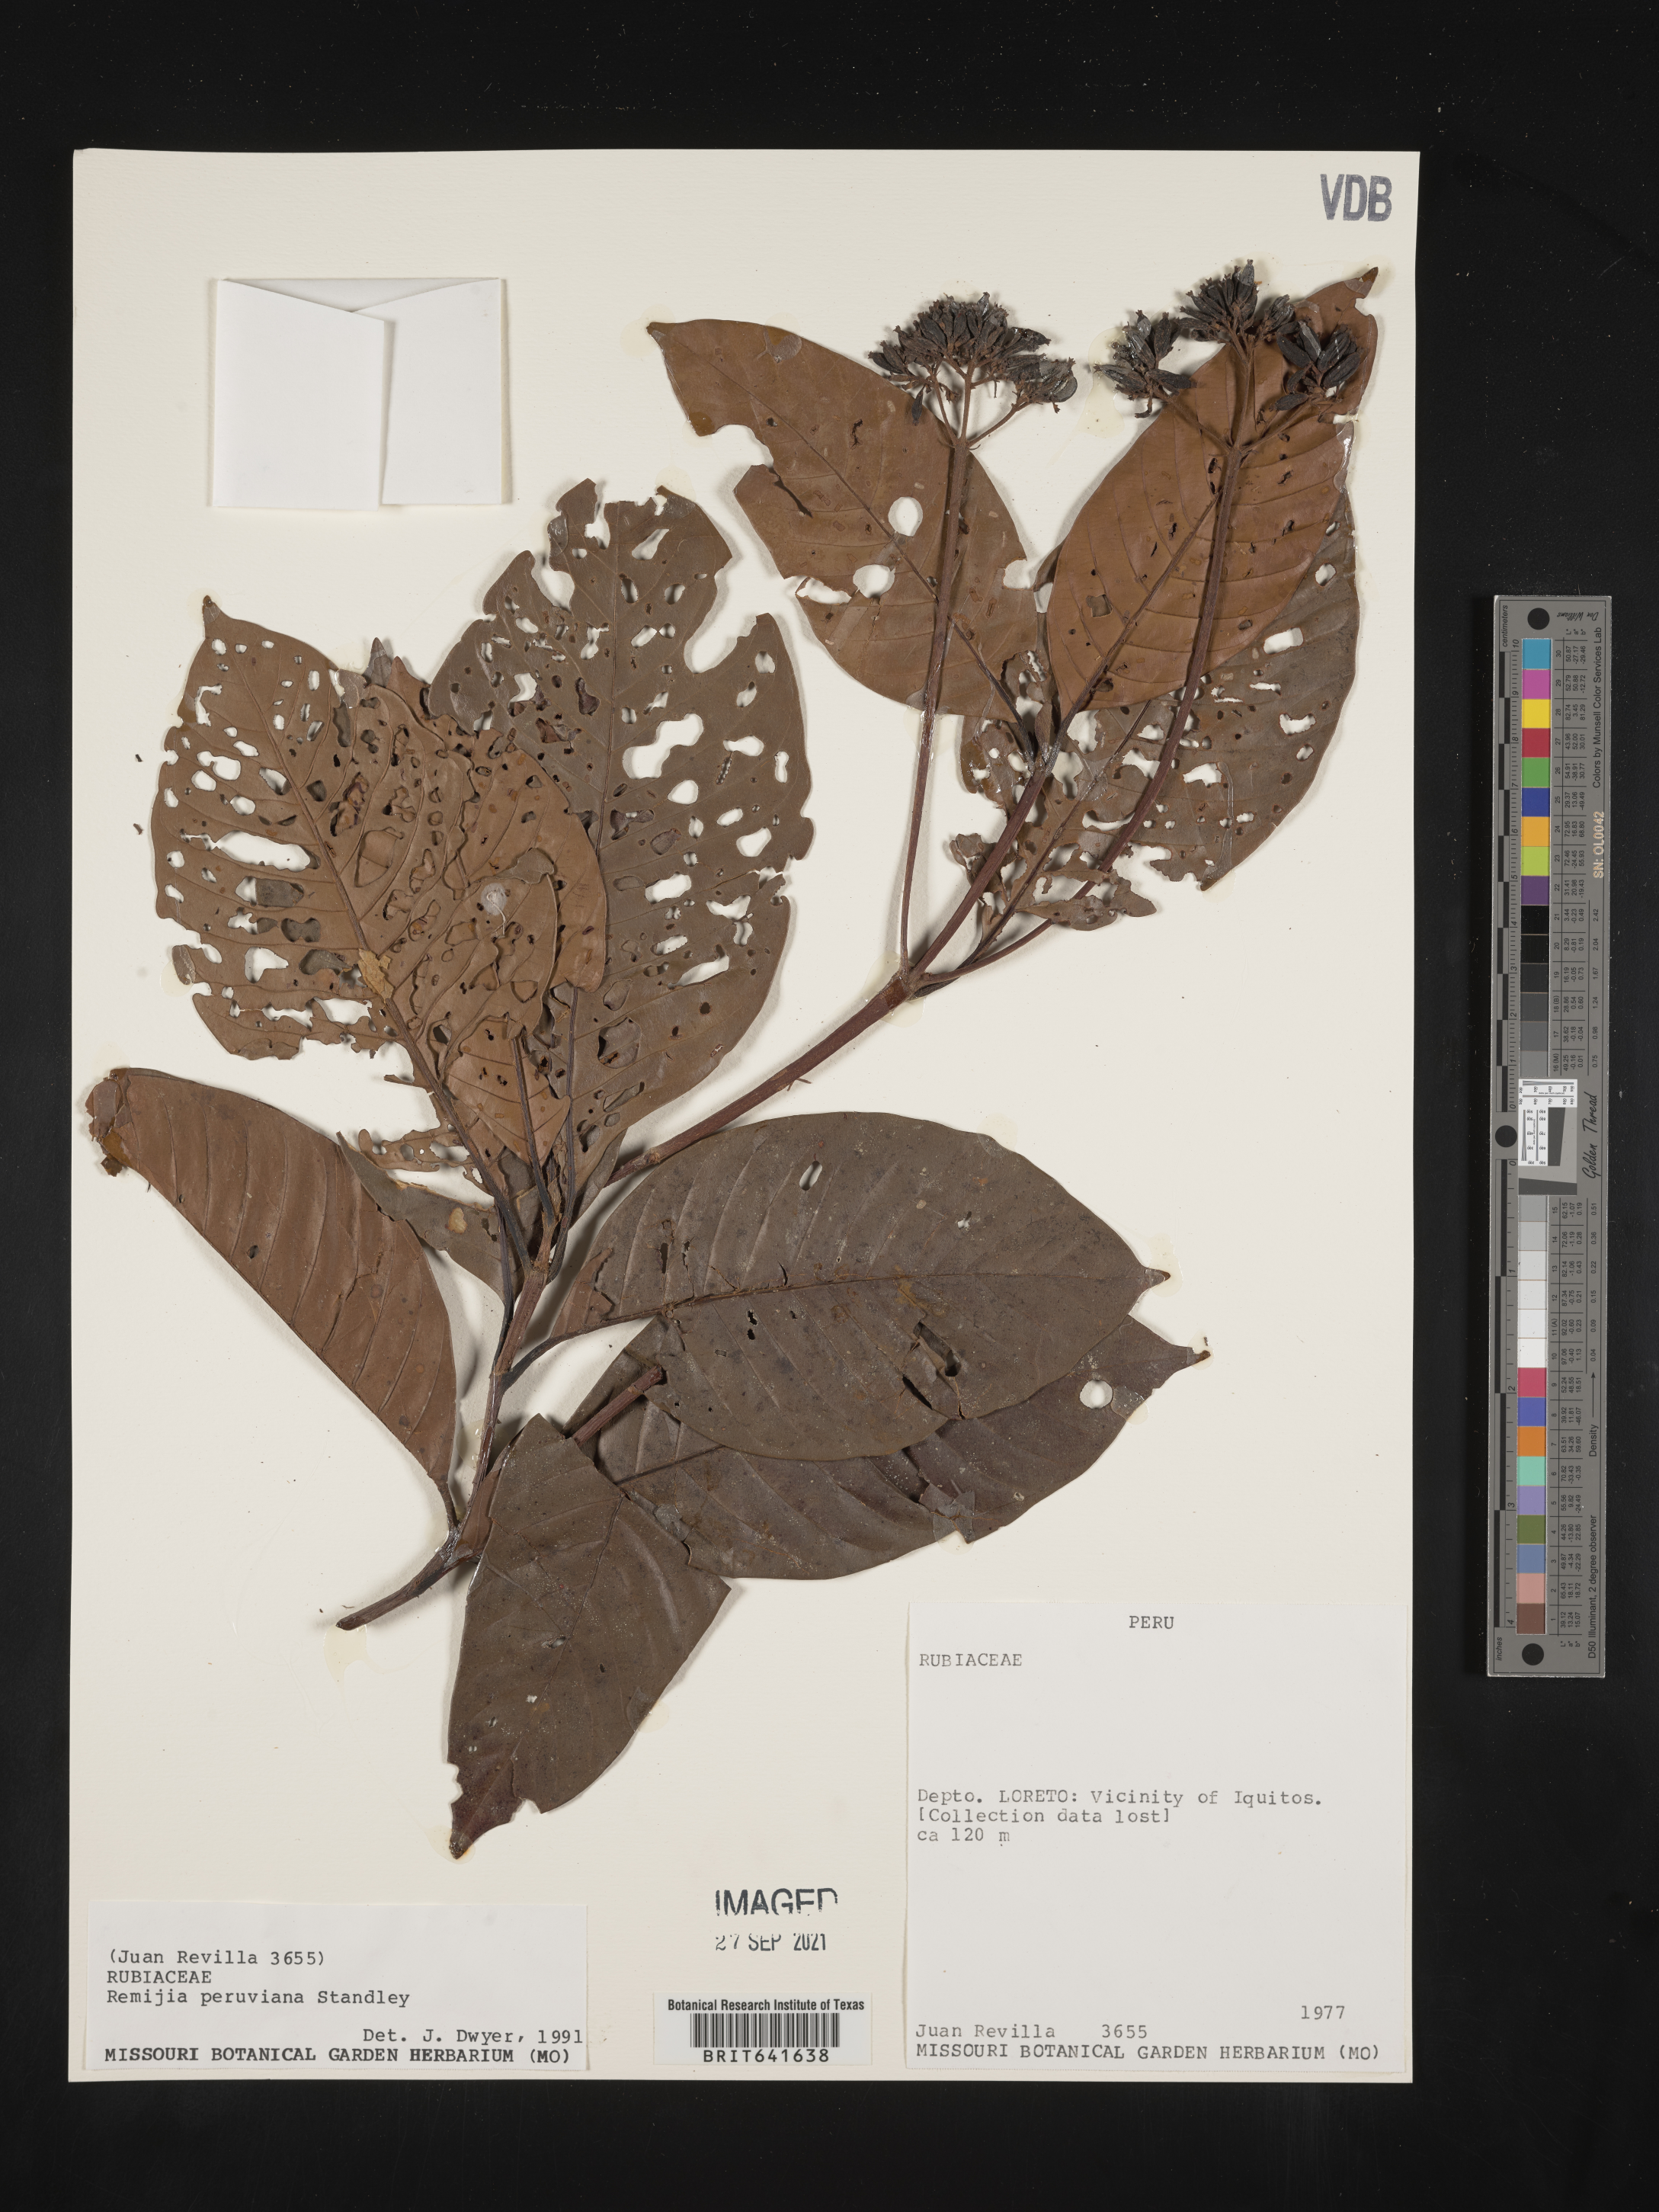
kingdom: Plantae
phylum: Tracheophyta
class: Magnoliopsida
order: Gentianales
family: Rubiaceae
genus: Remijia
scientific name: Remijia
